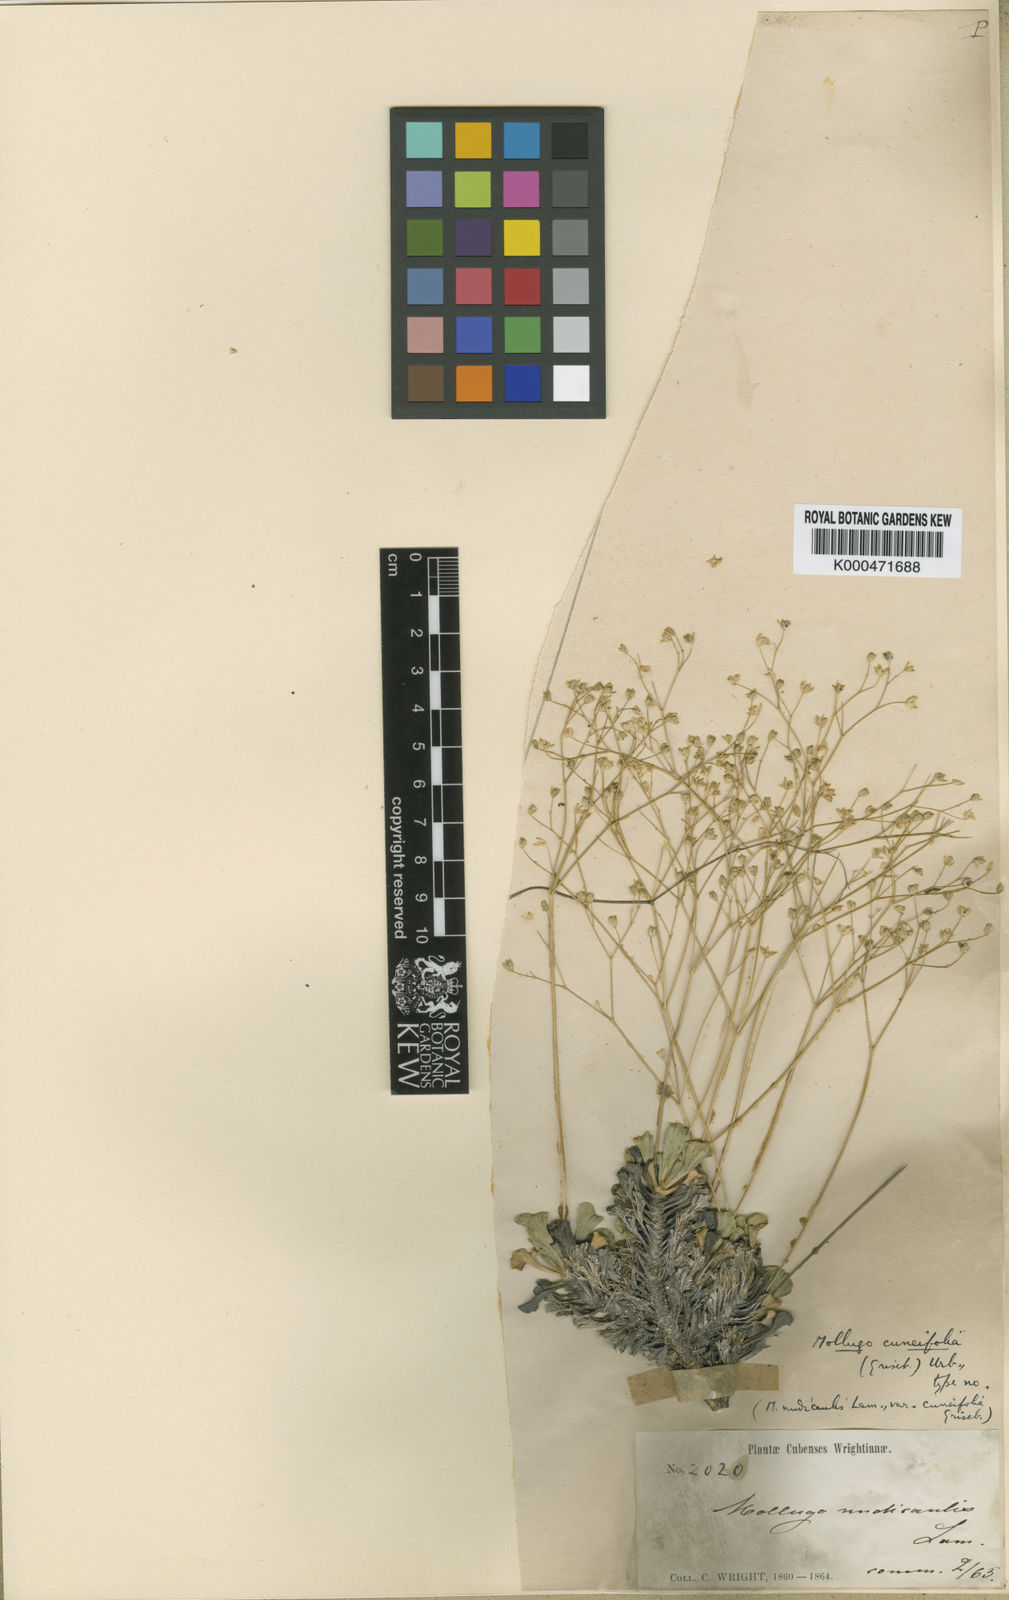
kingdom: Plantae
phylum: Tracheophyta
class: Magnoliopsida
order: Caryophyllales
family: Molluginaceae
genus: Paramollugo
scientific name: Paramollugo cuneifolia
